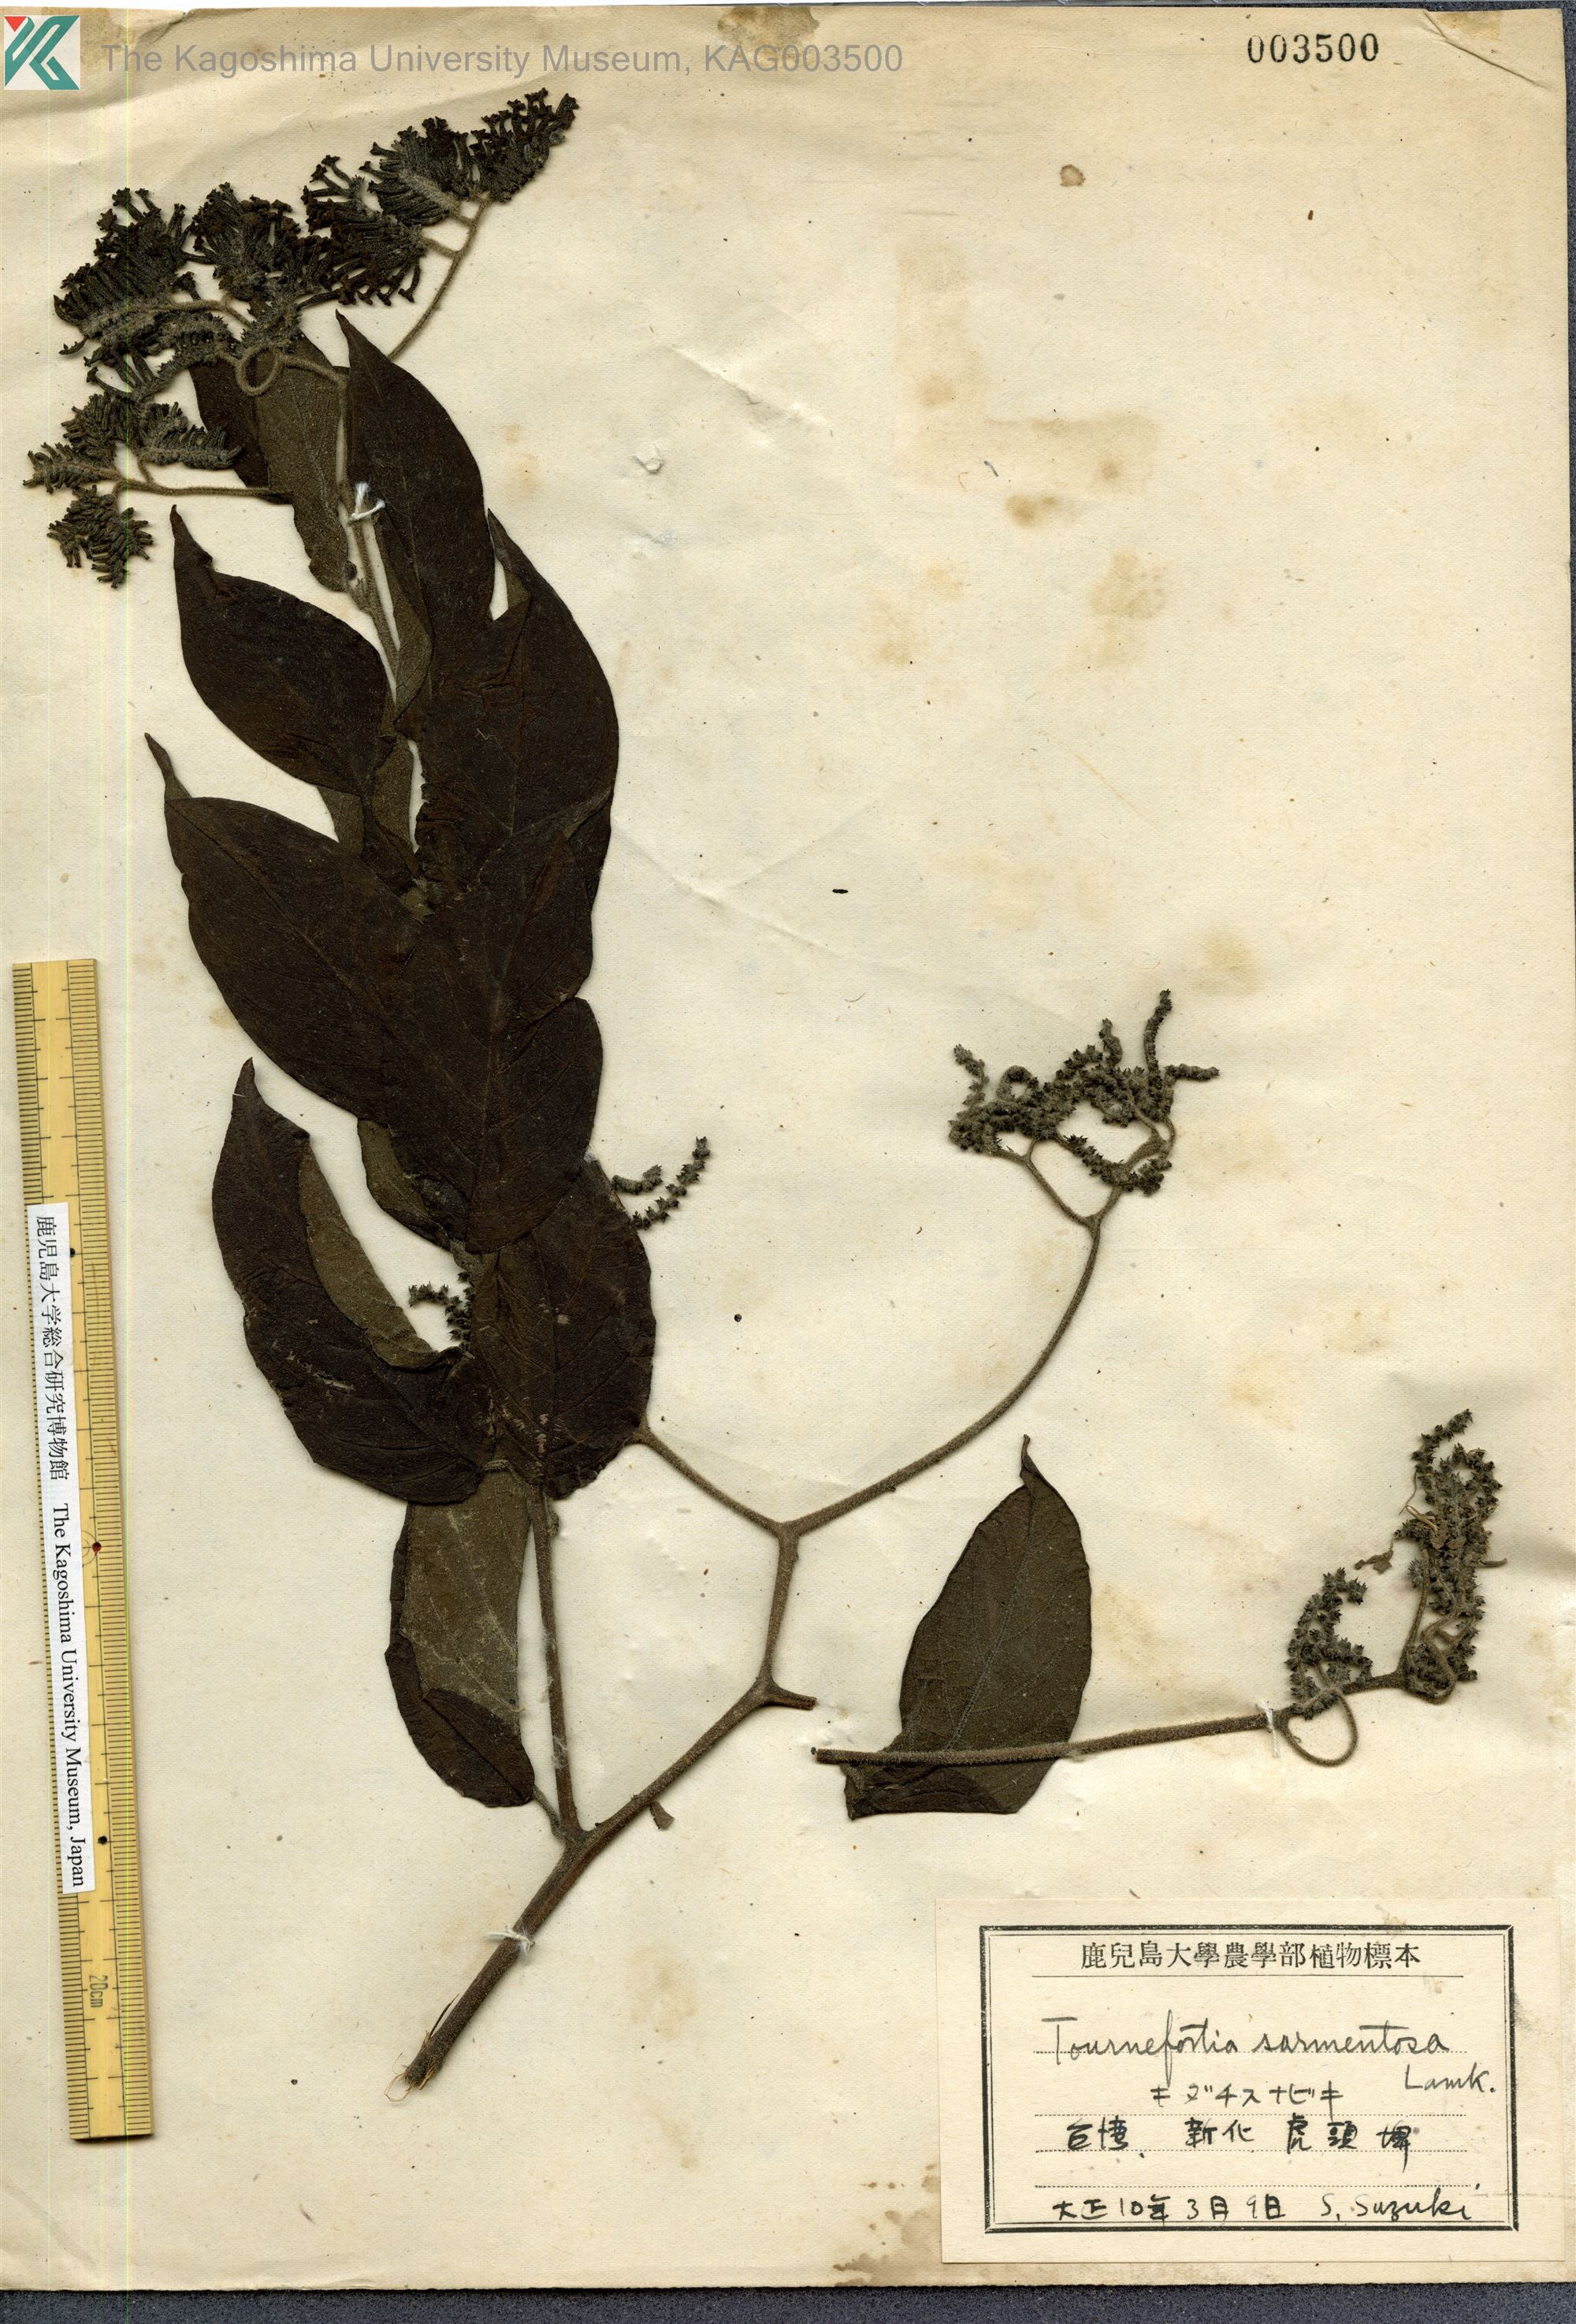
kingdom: Plantae
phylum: Tracheophyta
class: Magnoliopsida
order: Boraginales
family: Heliotropiaceae
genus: Heliotropium
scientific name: Heliotropium sarmentosum
